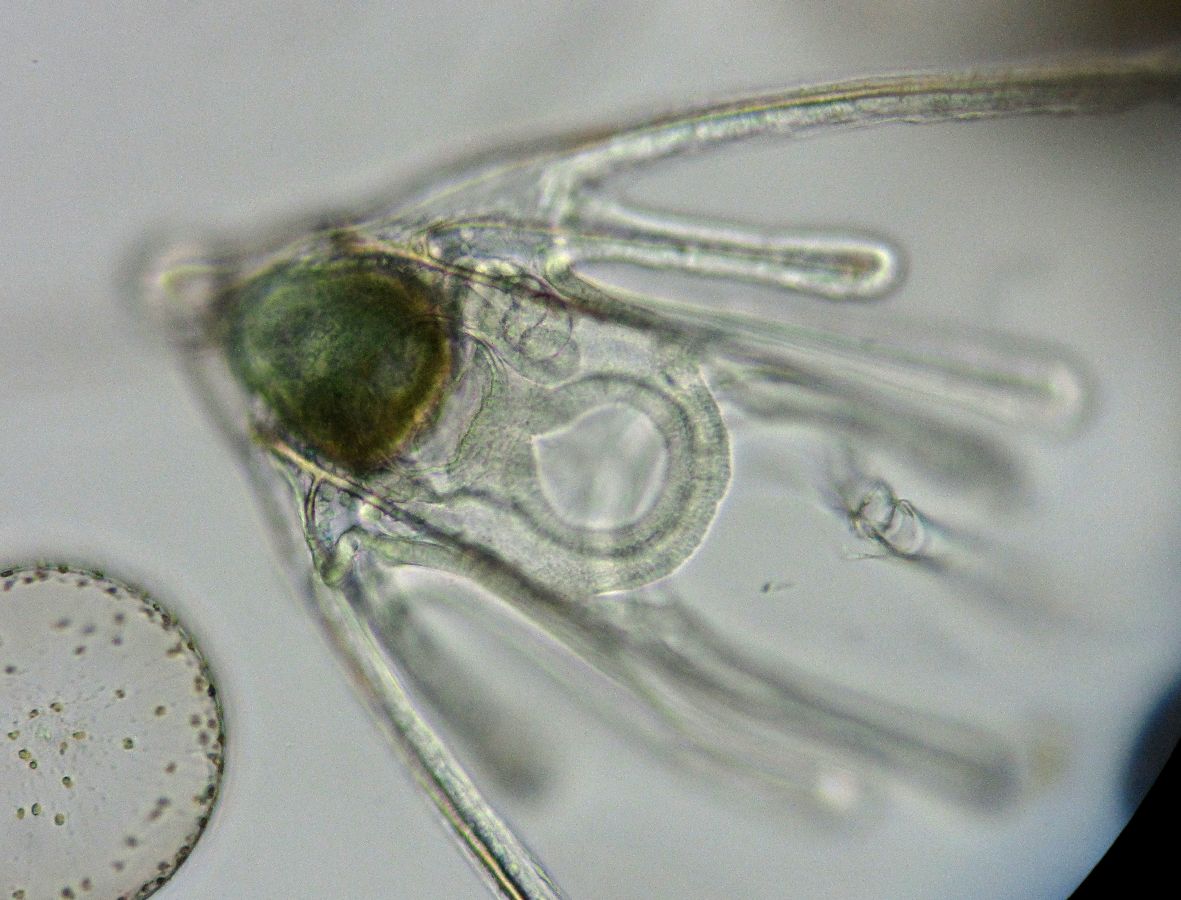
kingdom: Animalia
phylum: Echinodermata
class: Ophiuroidea
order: Amphilepidida
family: Ophiopholidae
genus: Ophiopholis
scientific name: Ophiopholis aculeata
